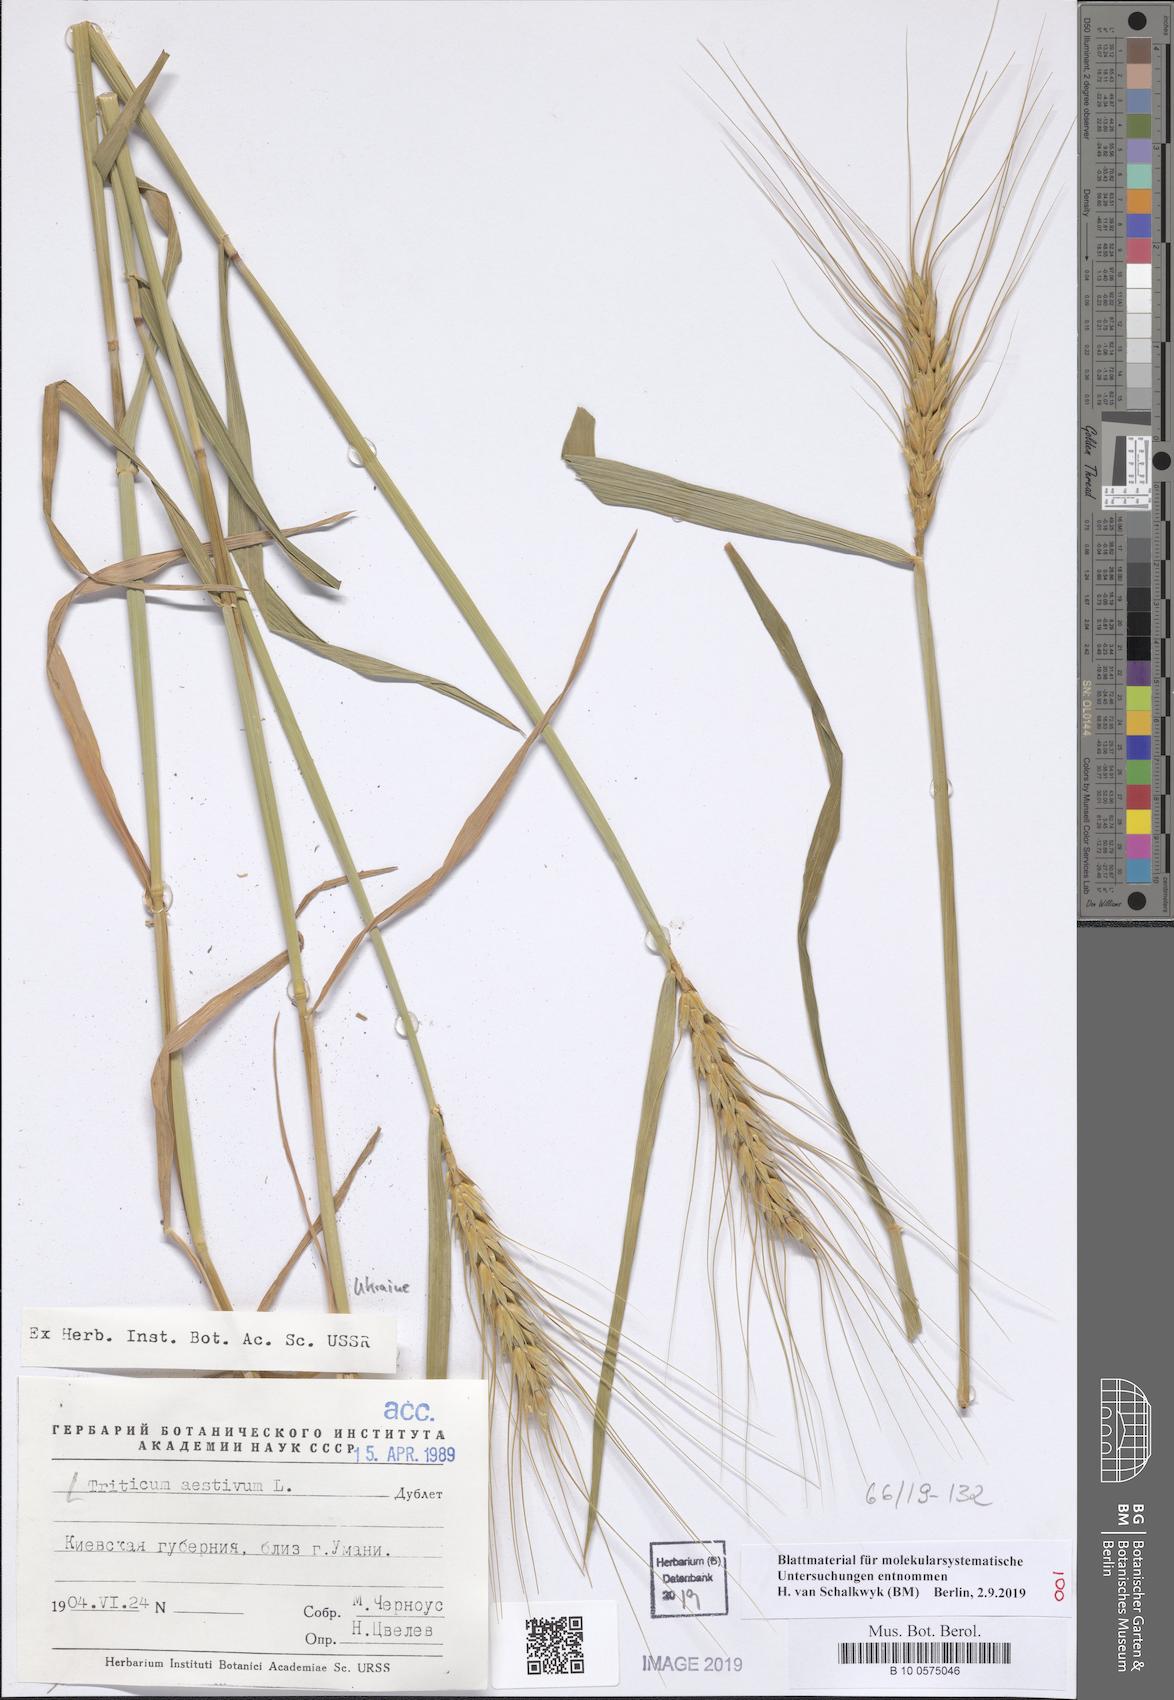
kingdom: Plantae
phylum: Tracheophyta
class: Liliopsida
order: Poales
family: Poaceae
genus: Triticum
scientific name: Triticum aestivum
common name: Common wheat
